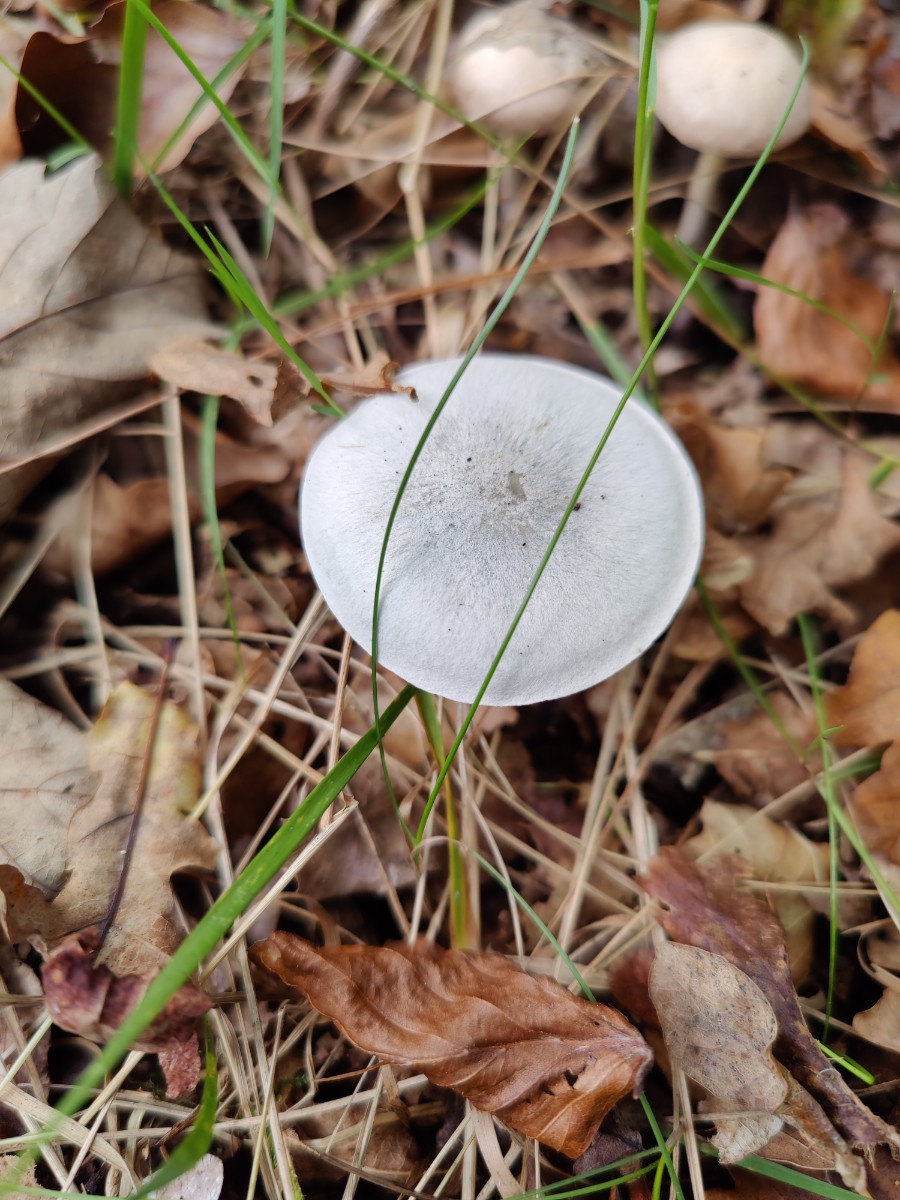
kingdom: Fungi
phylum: Basidiomycota
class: Agaricomycetes
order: Agaricales
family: Tricholomataceae
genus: Clitocybe
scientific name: Clitocybe odora
